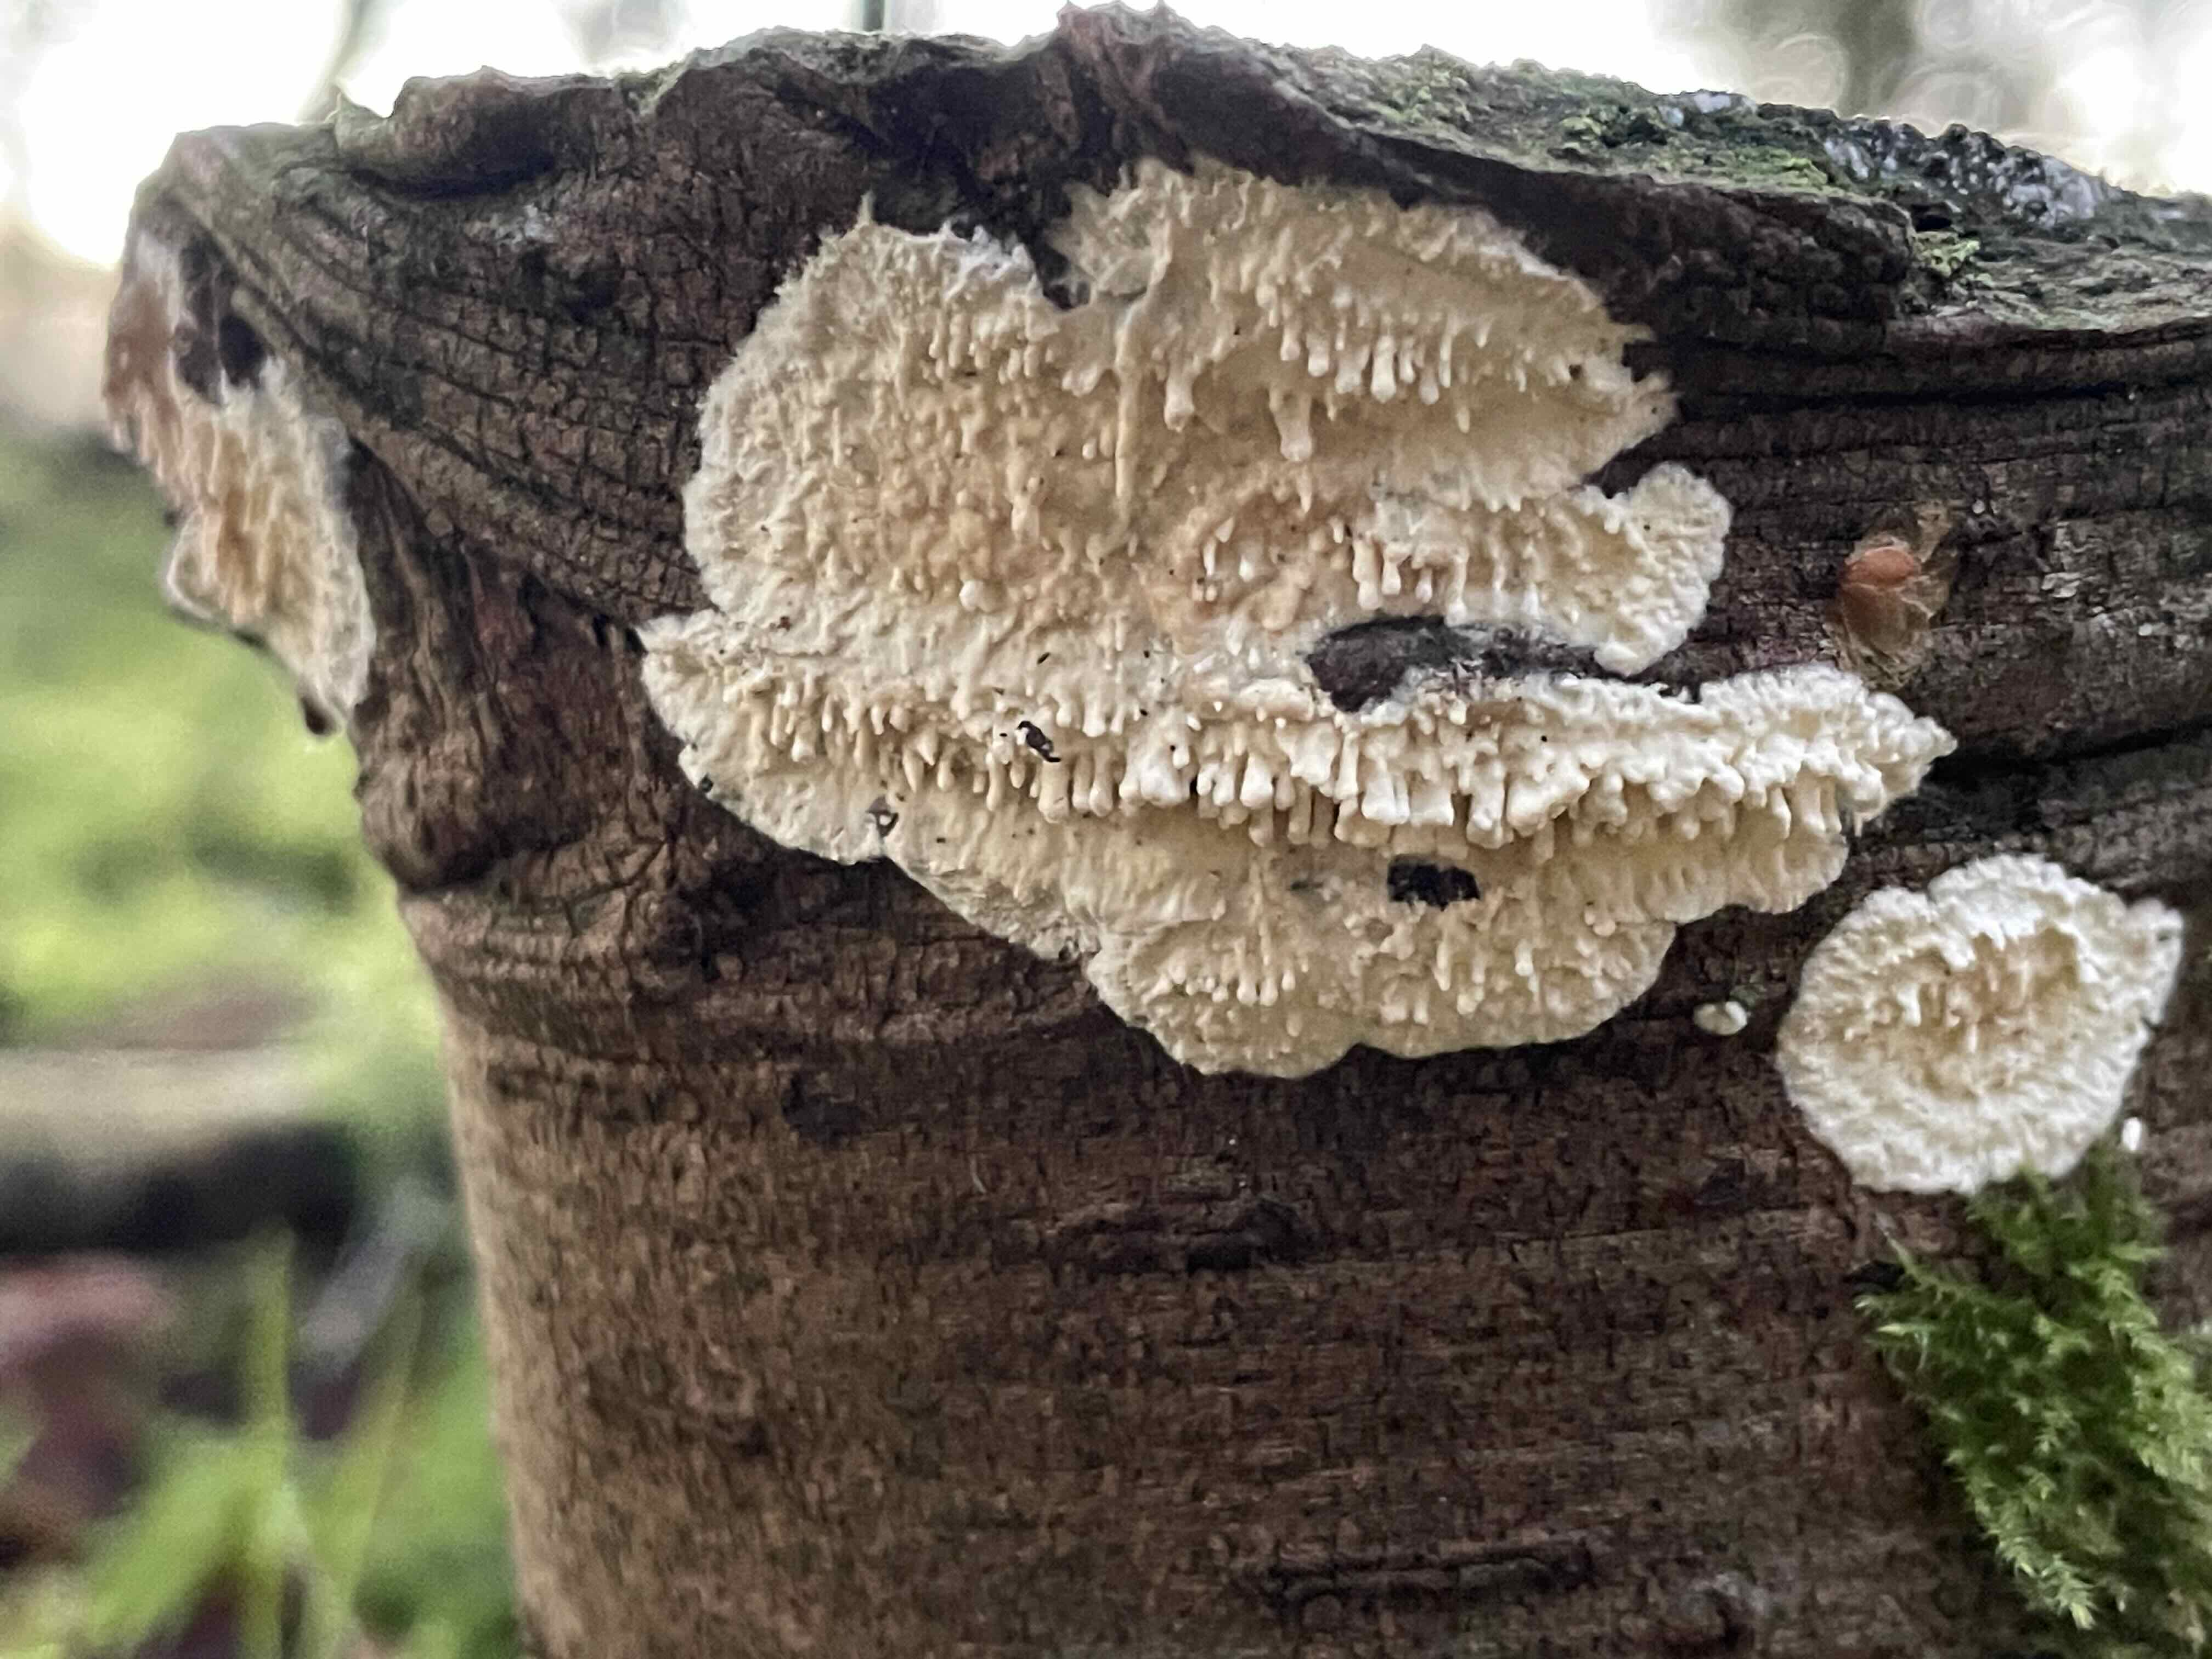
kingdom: Fungi
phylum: Basidiomycota
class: Agaricomycetes
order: Hymenochaetales
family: Schizoporaceae
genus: Xylodon
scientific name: Xylodon radula
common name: grovtandet kalkskind
